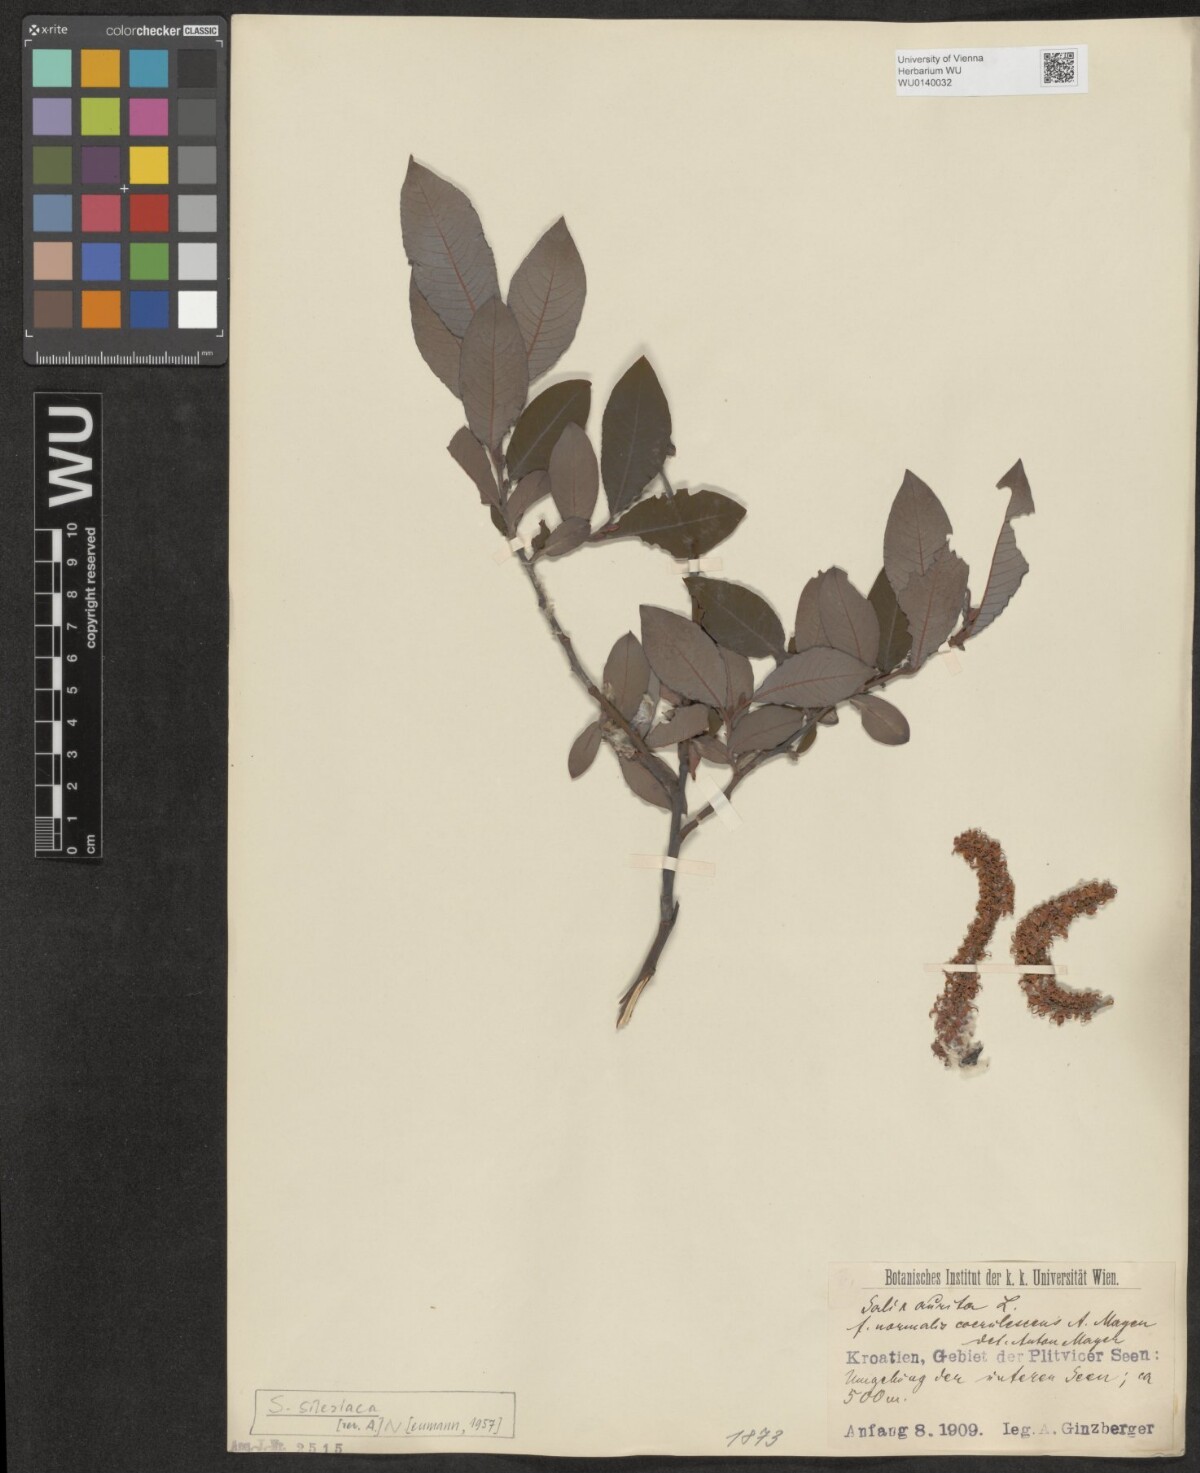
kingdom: Plantae
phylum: Tracheophyta
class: Magnoliopsida
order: Malpighiales
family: Salicaceae
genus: Salix
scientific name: Salix silesiaca
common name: Silesian willow
